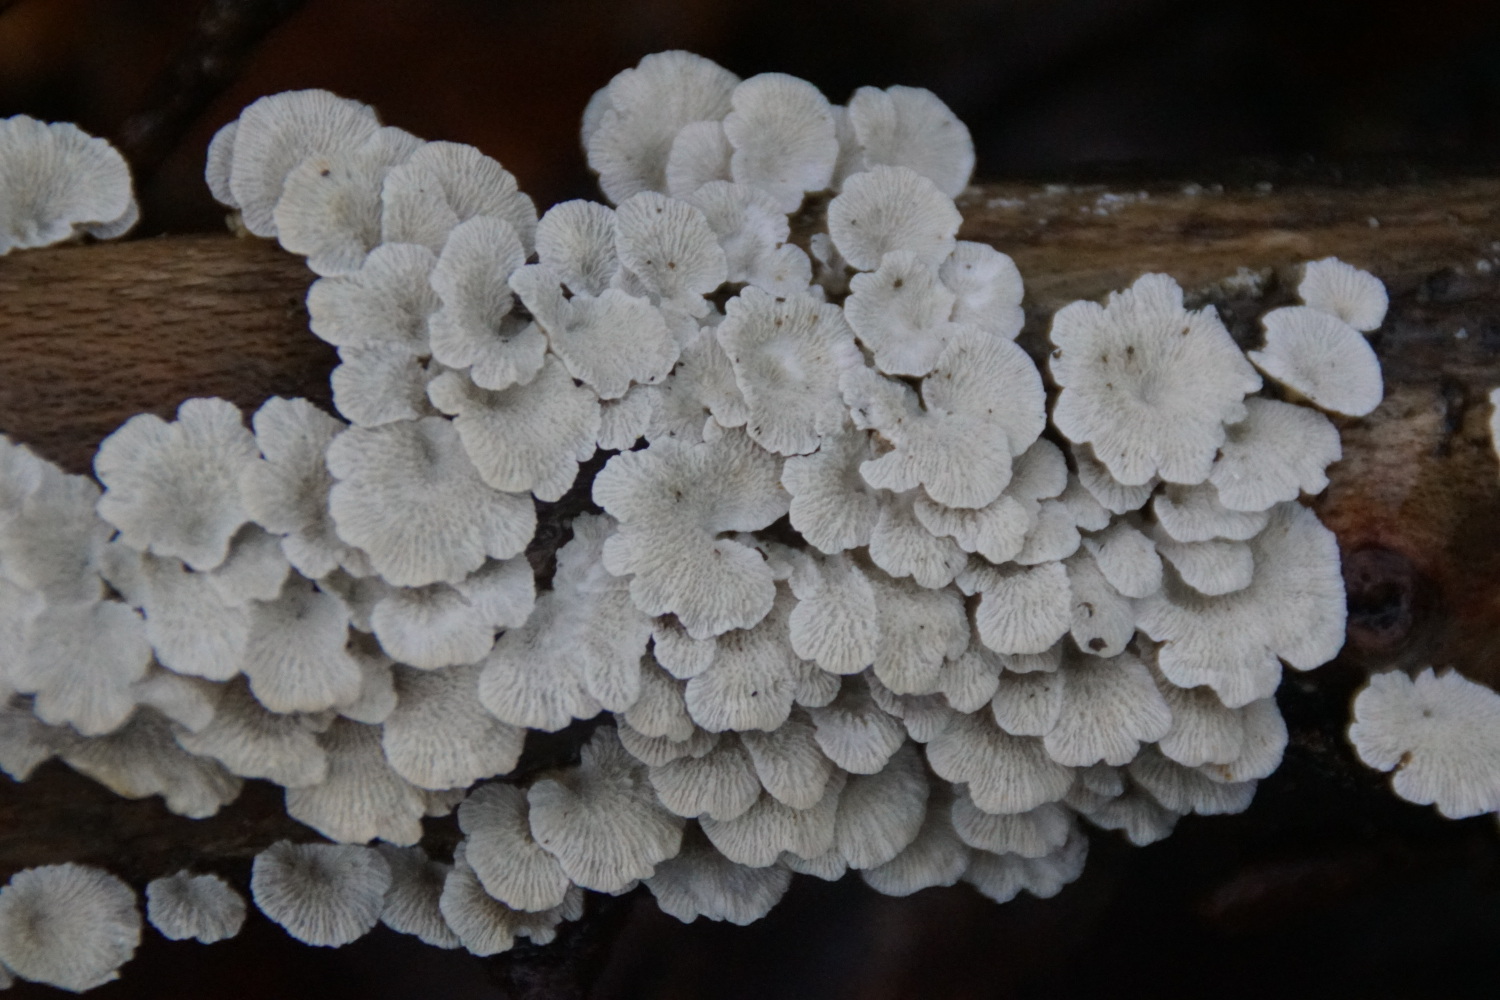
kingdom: Fungi
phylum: Basidiomycota
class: Agaricomycetes
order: Amylocorticiales
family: Amylocorticiaceae
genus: Plicaturopsis
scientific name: Plicaturopsis crispa
